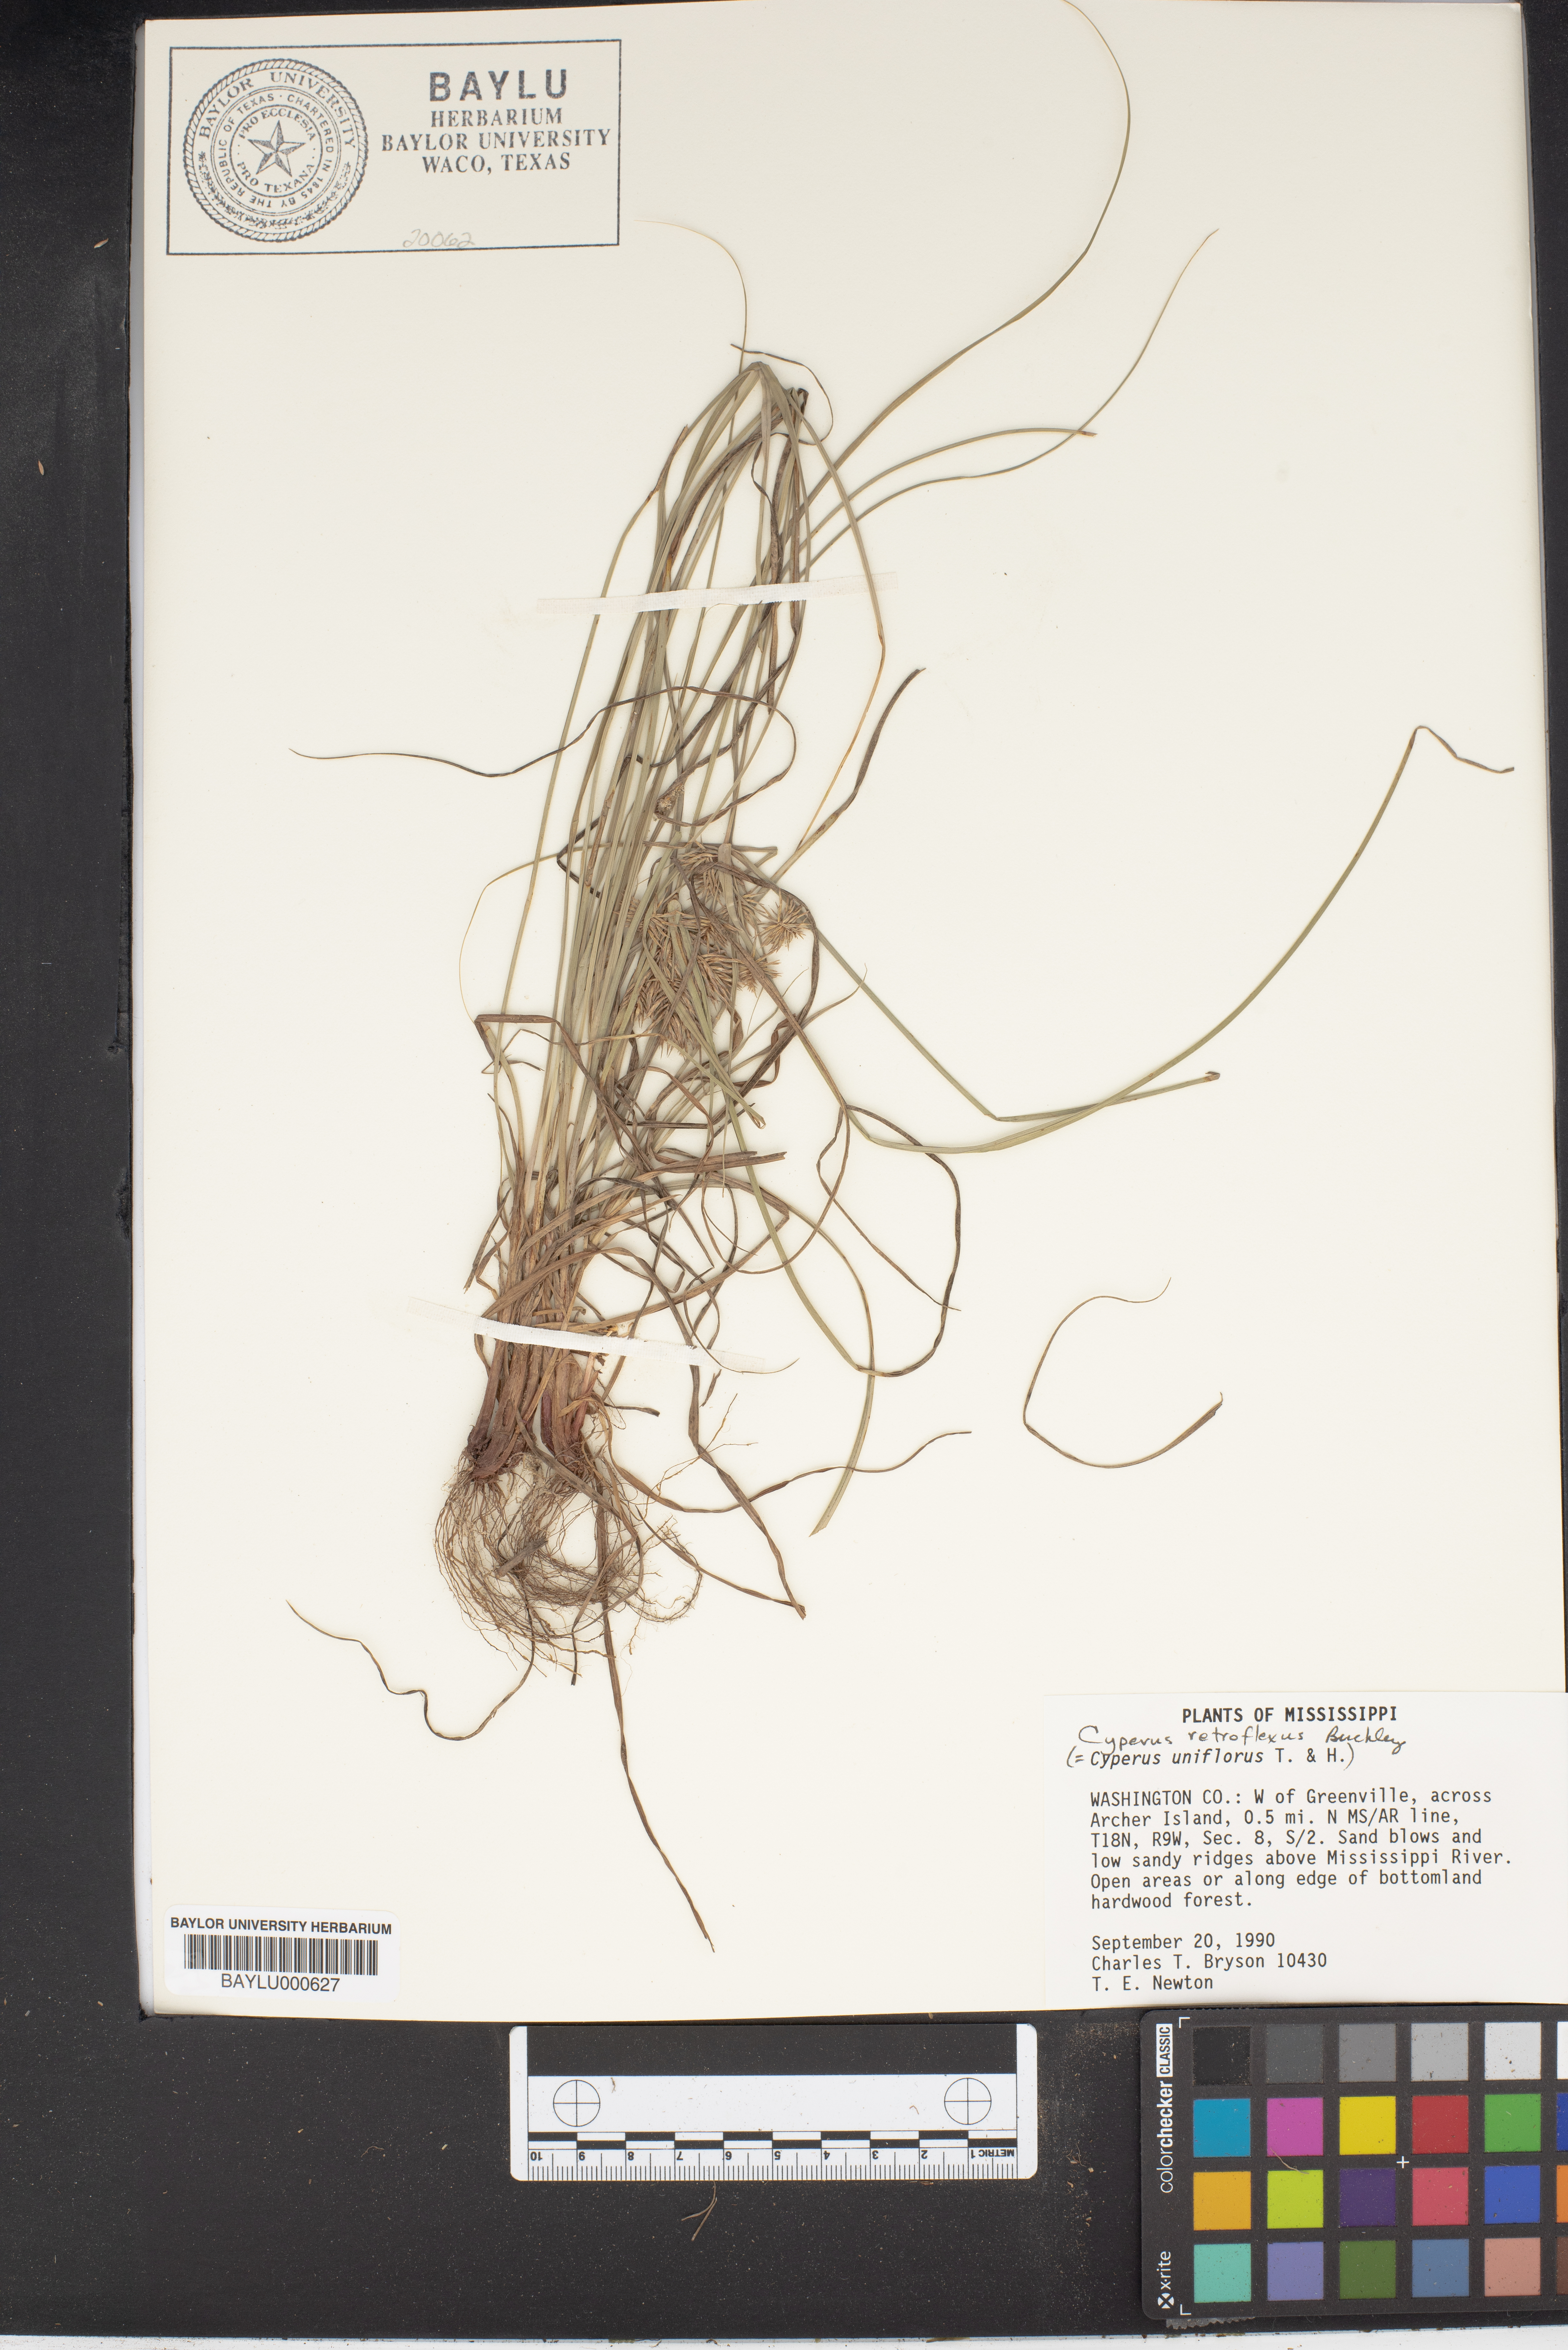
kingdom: Plantae
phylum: Tracheophyta
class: Liliopsida
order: Poales
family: Cyperaceae
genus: Cyperus
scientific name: Cyperus retroflexus
